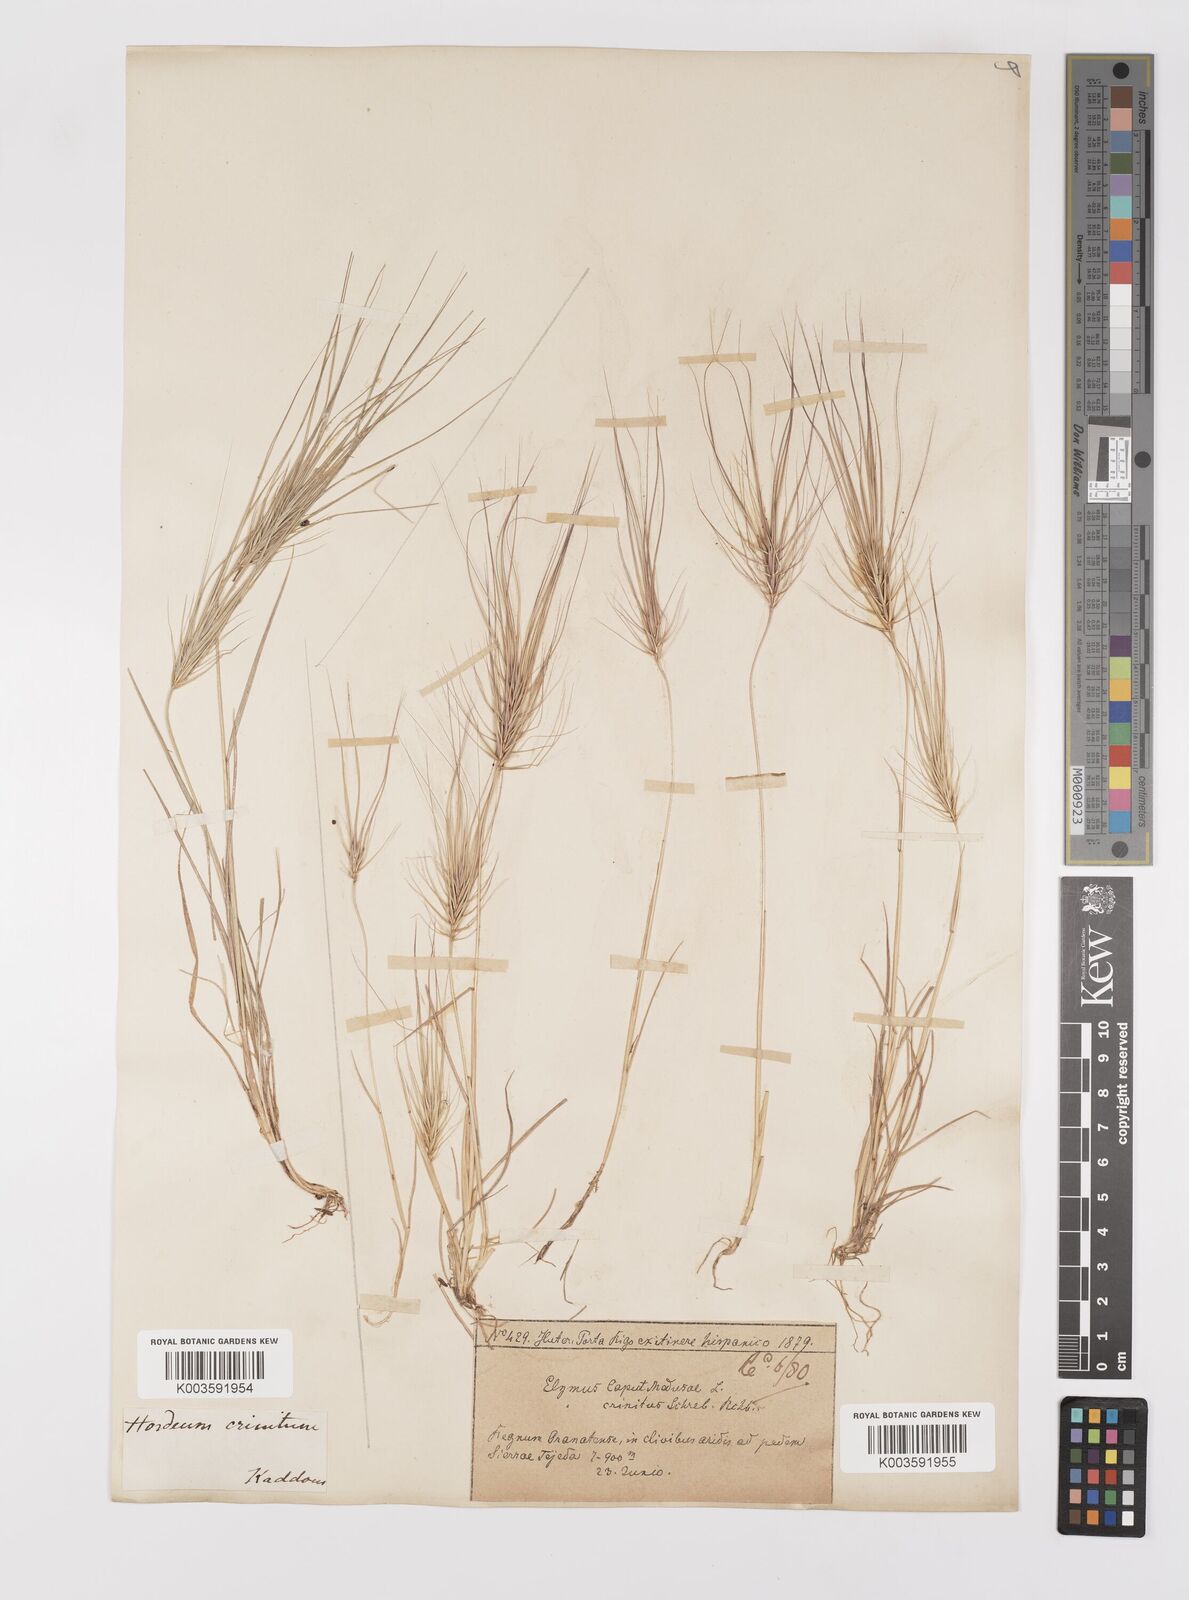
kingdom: Plantae
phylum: Tracheophyta
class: Liliopsida
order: Poales
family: Poaceae
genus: Taeniatherum
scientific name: Taeniatherum caput-medusae
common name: Medusahead
